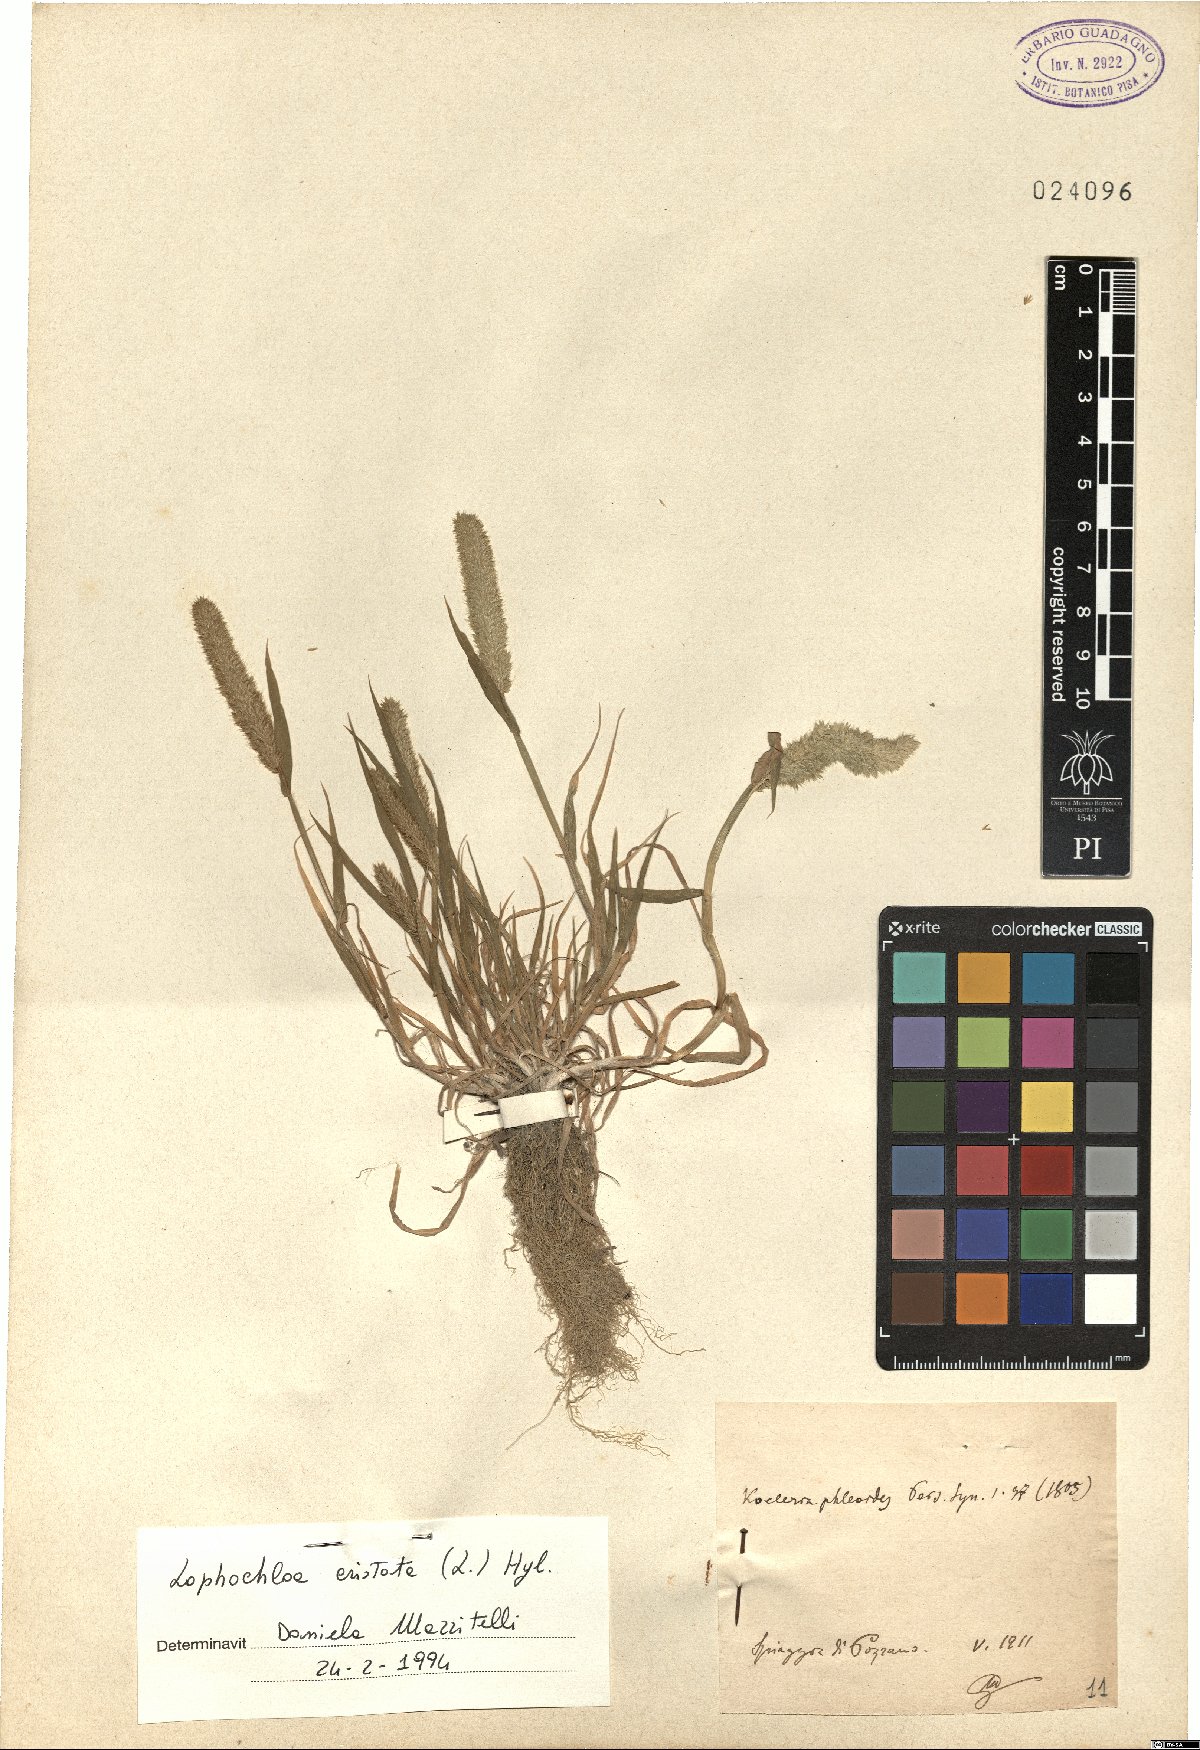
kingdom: Plantae
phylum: Tracheophyta
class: Liliopsida
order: Poales
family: Poaceae
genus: Rostraria
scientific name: Rostraria cristata
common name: Mediterranean hair-grass
